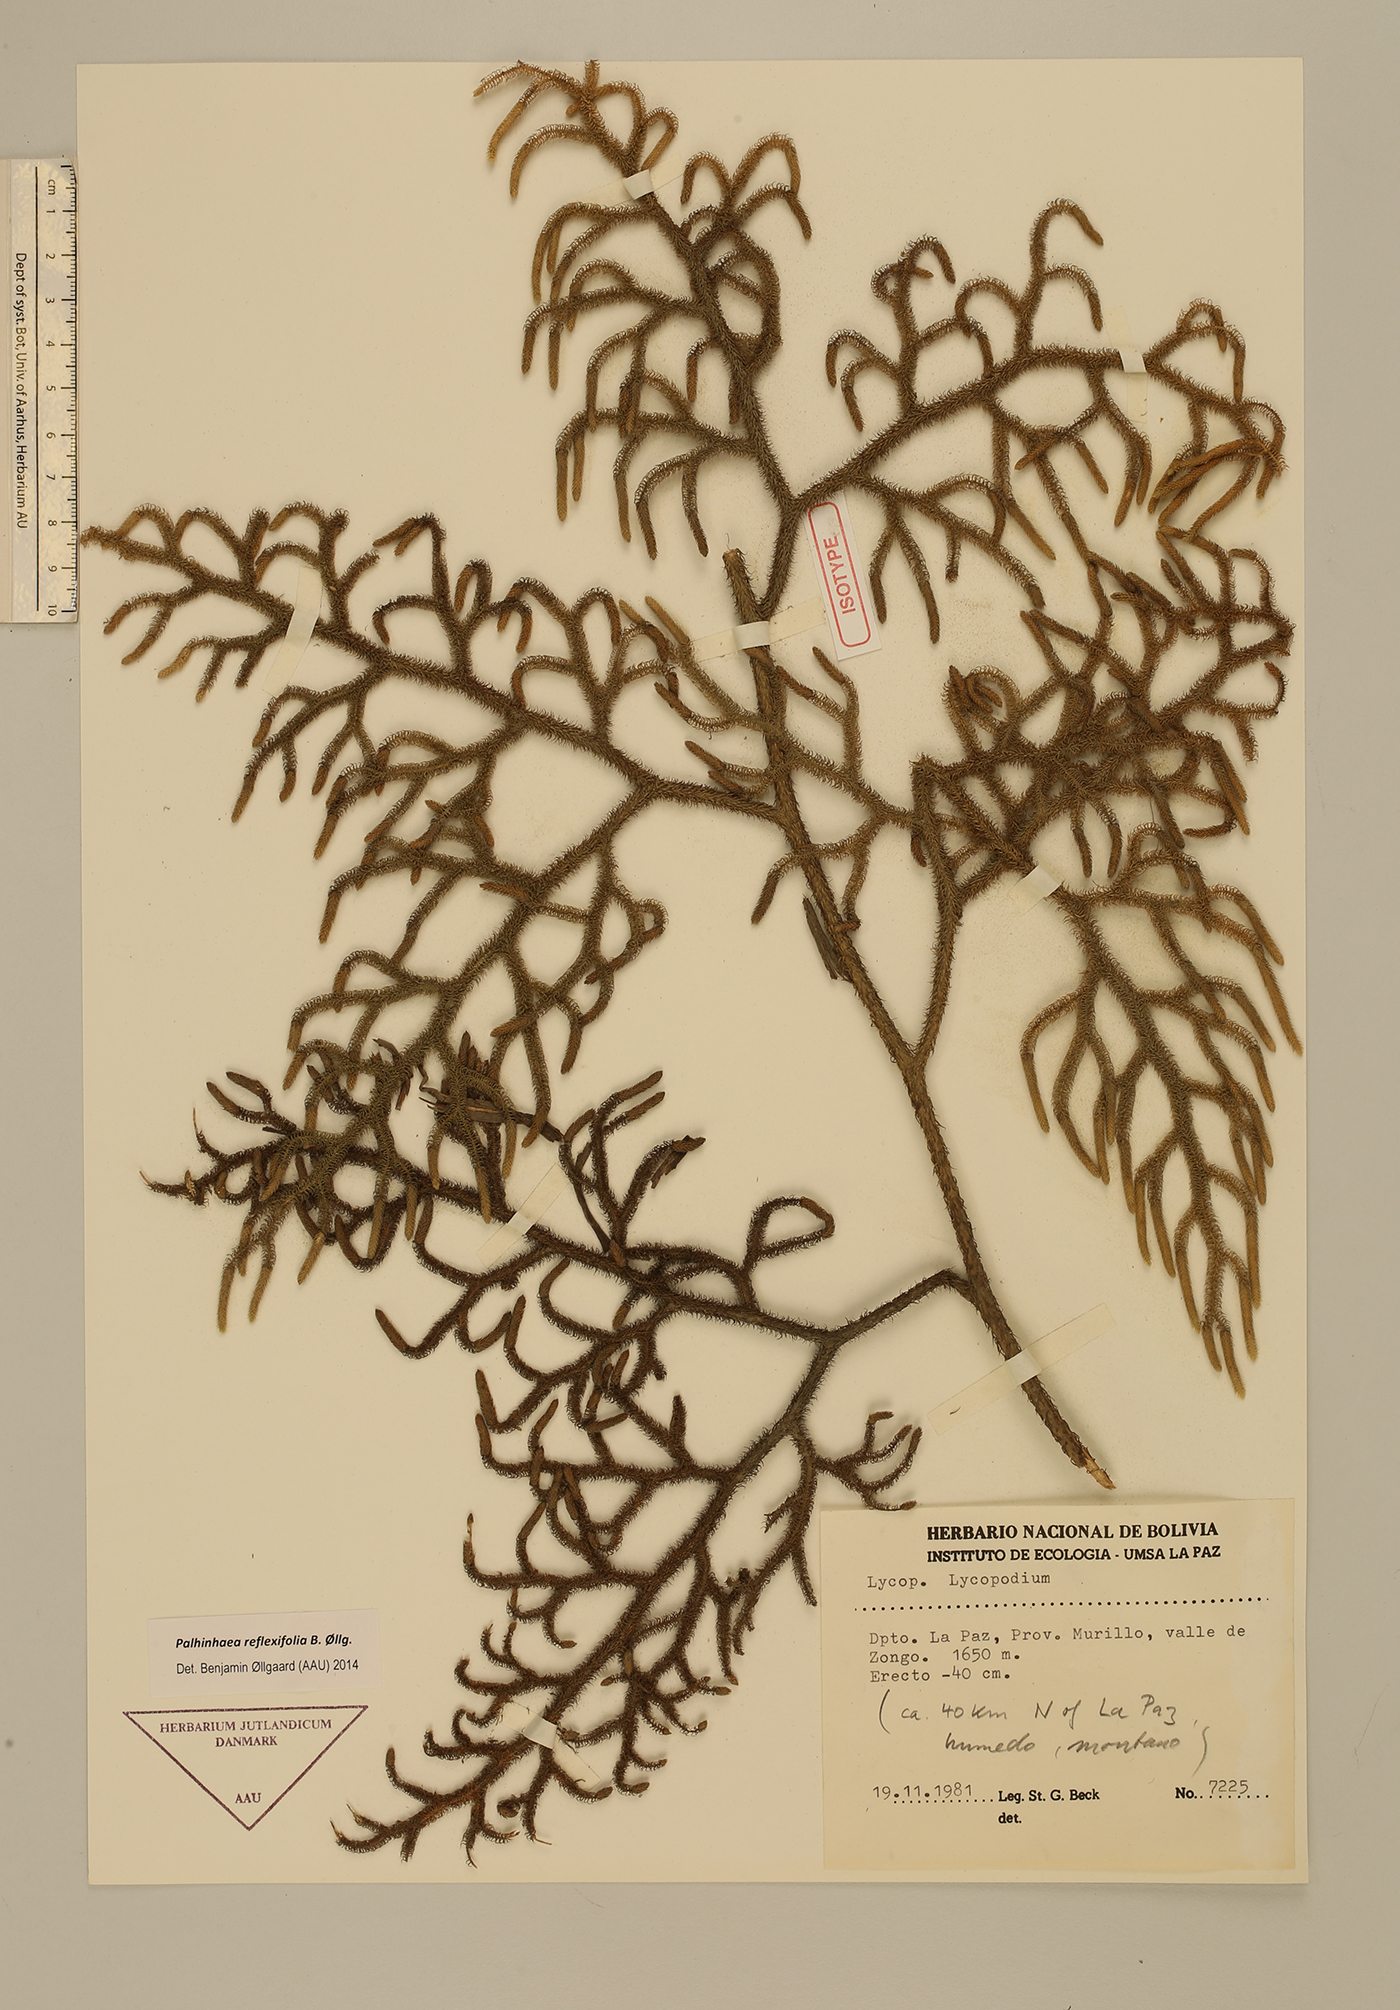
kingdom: Plantae
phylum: Tracheophyta
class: Lycopodiopsida
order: Lycopodiales
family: Lycopodiaceae
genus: Palhinhaea
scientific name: Palhinhaea reflexifolia
